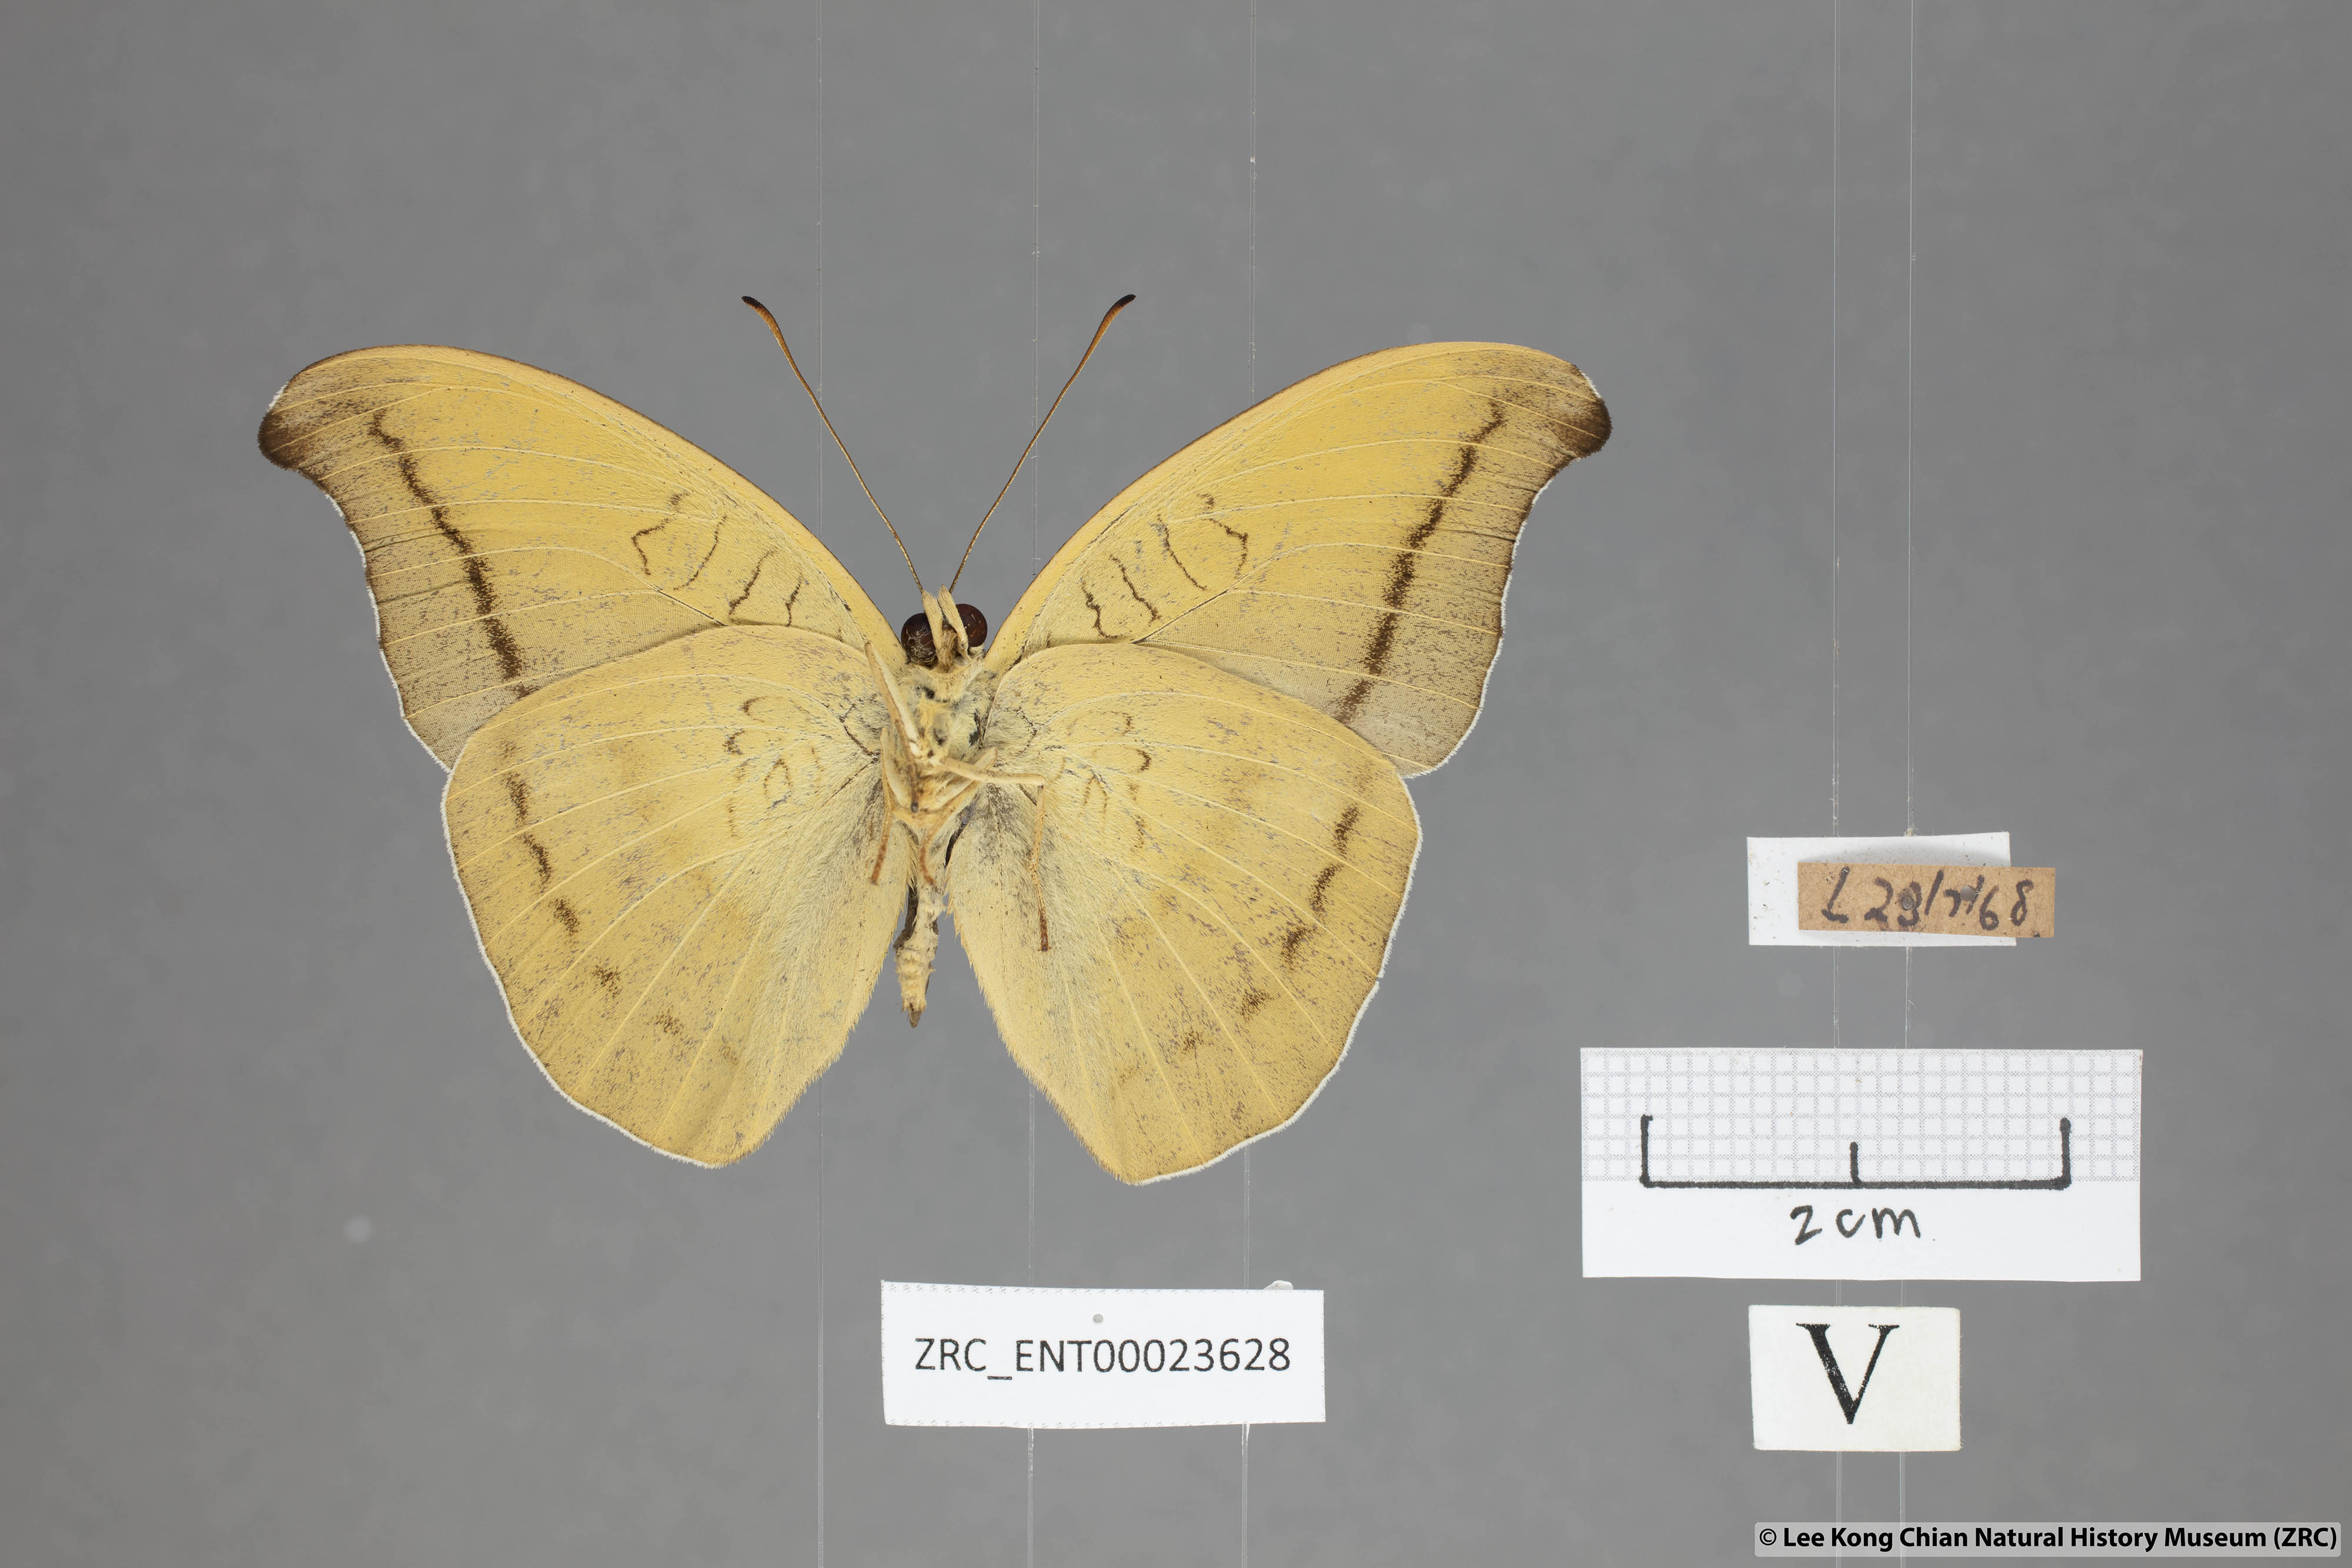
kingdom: Animalia
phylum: Arthropoda
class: Insecta
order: Lepidoptera
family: Nymphalidae
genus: Tanaecia
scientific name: Tanaecia cocytus
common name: Lavender count
